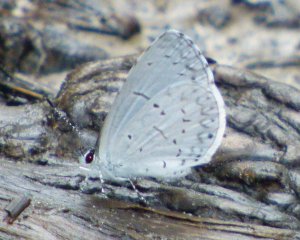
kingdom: Animalia
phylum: Arthropoda
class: Insecta
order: Lepidoptera
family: Lycaenidae
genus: Cyaniris
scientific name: Cyaniris neglecta
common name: Summer Azure
